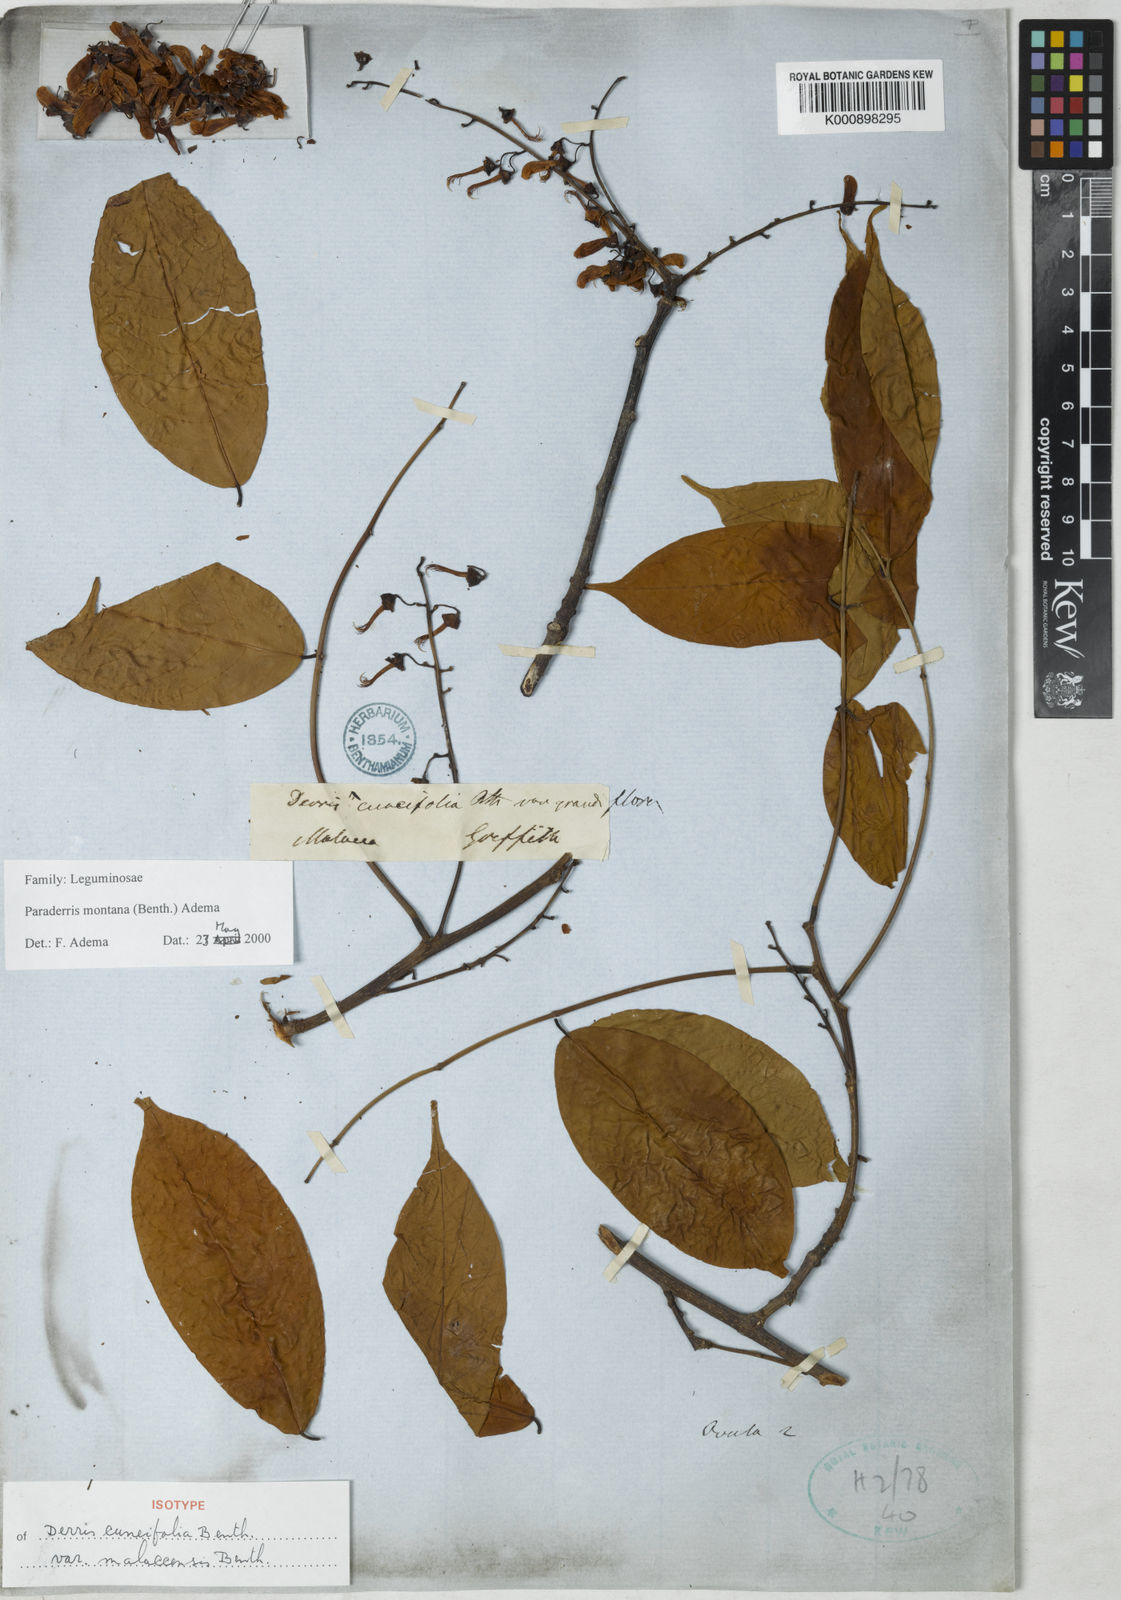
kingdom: Plantae
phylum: Tracheophyta
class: Magnoliopsida
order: Fabales
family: Fabaceae
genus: Derris
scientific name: Derris montana
